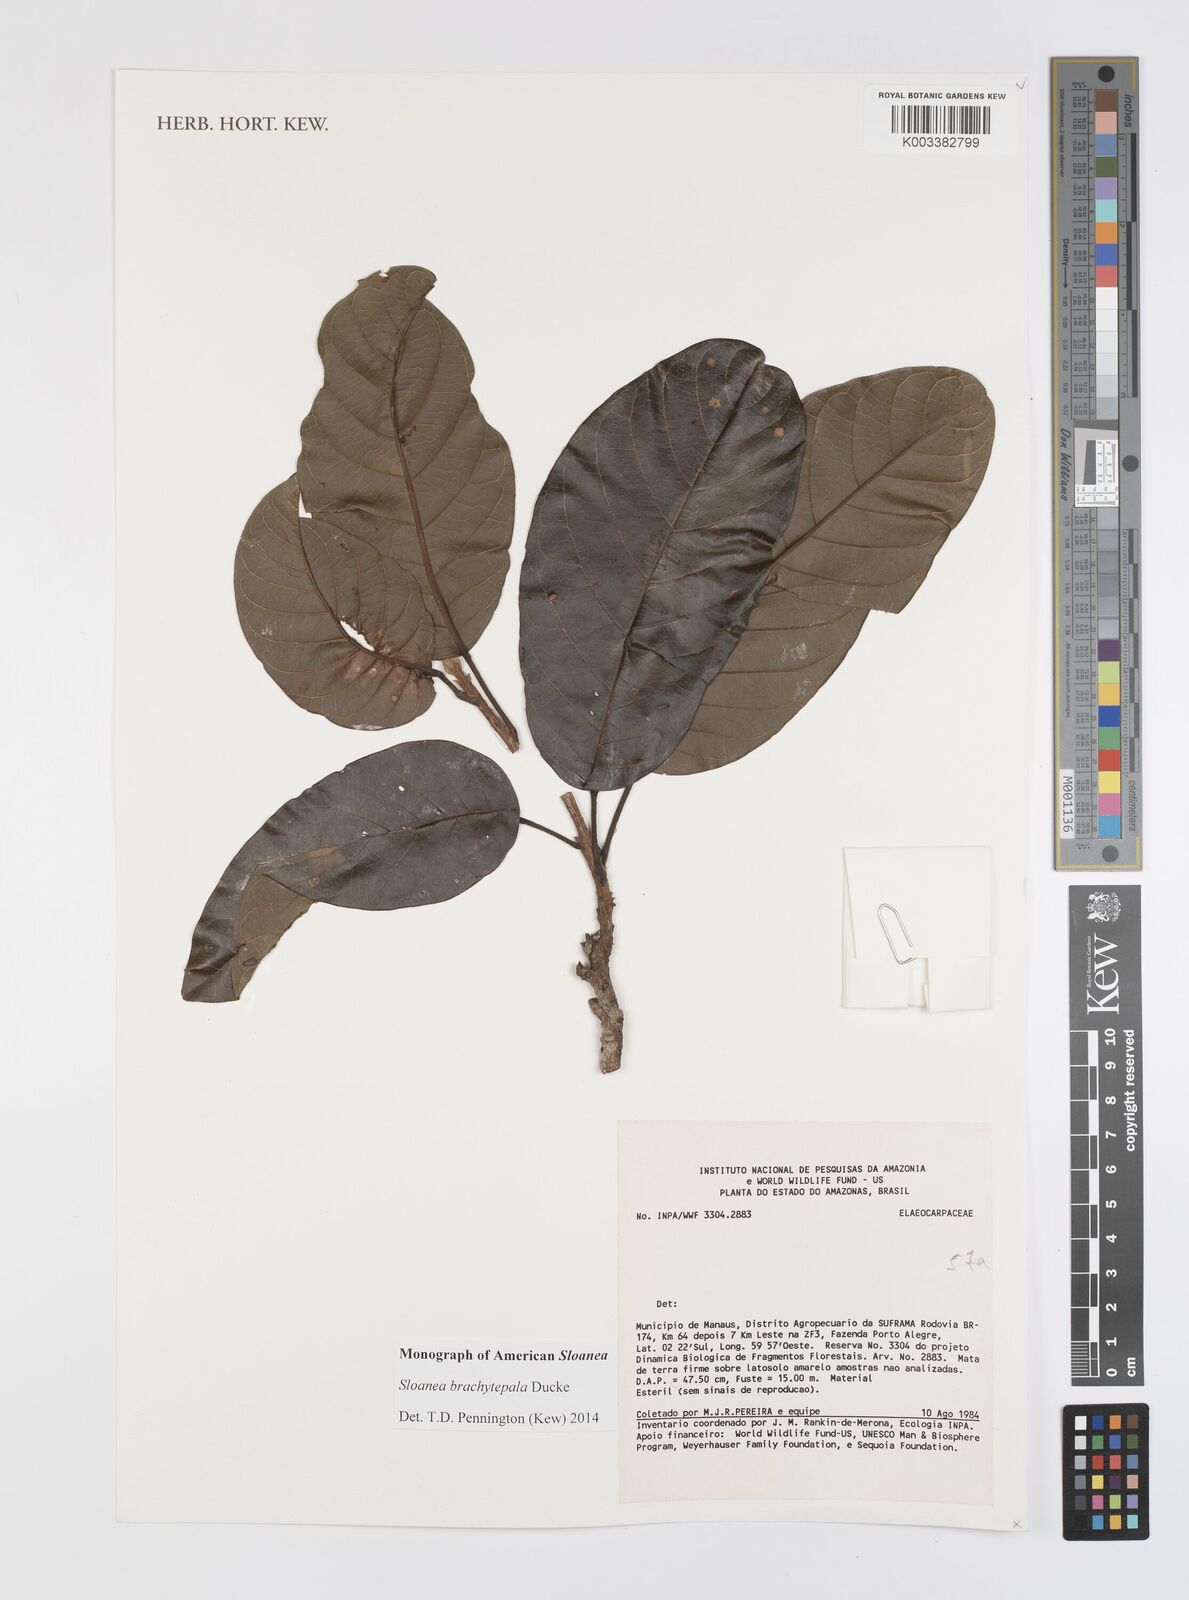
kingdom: Plantae
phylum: Tracheophyta
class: Magnoliopsida
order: Oxalidales
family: Elaeocarpaceae
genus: Sloanea
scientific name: Sloanea brachytepala
